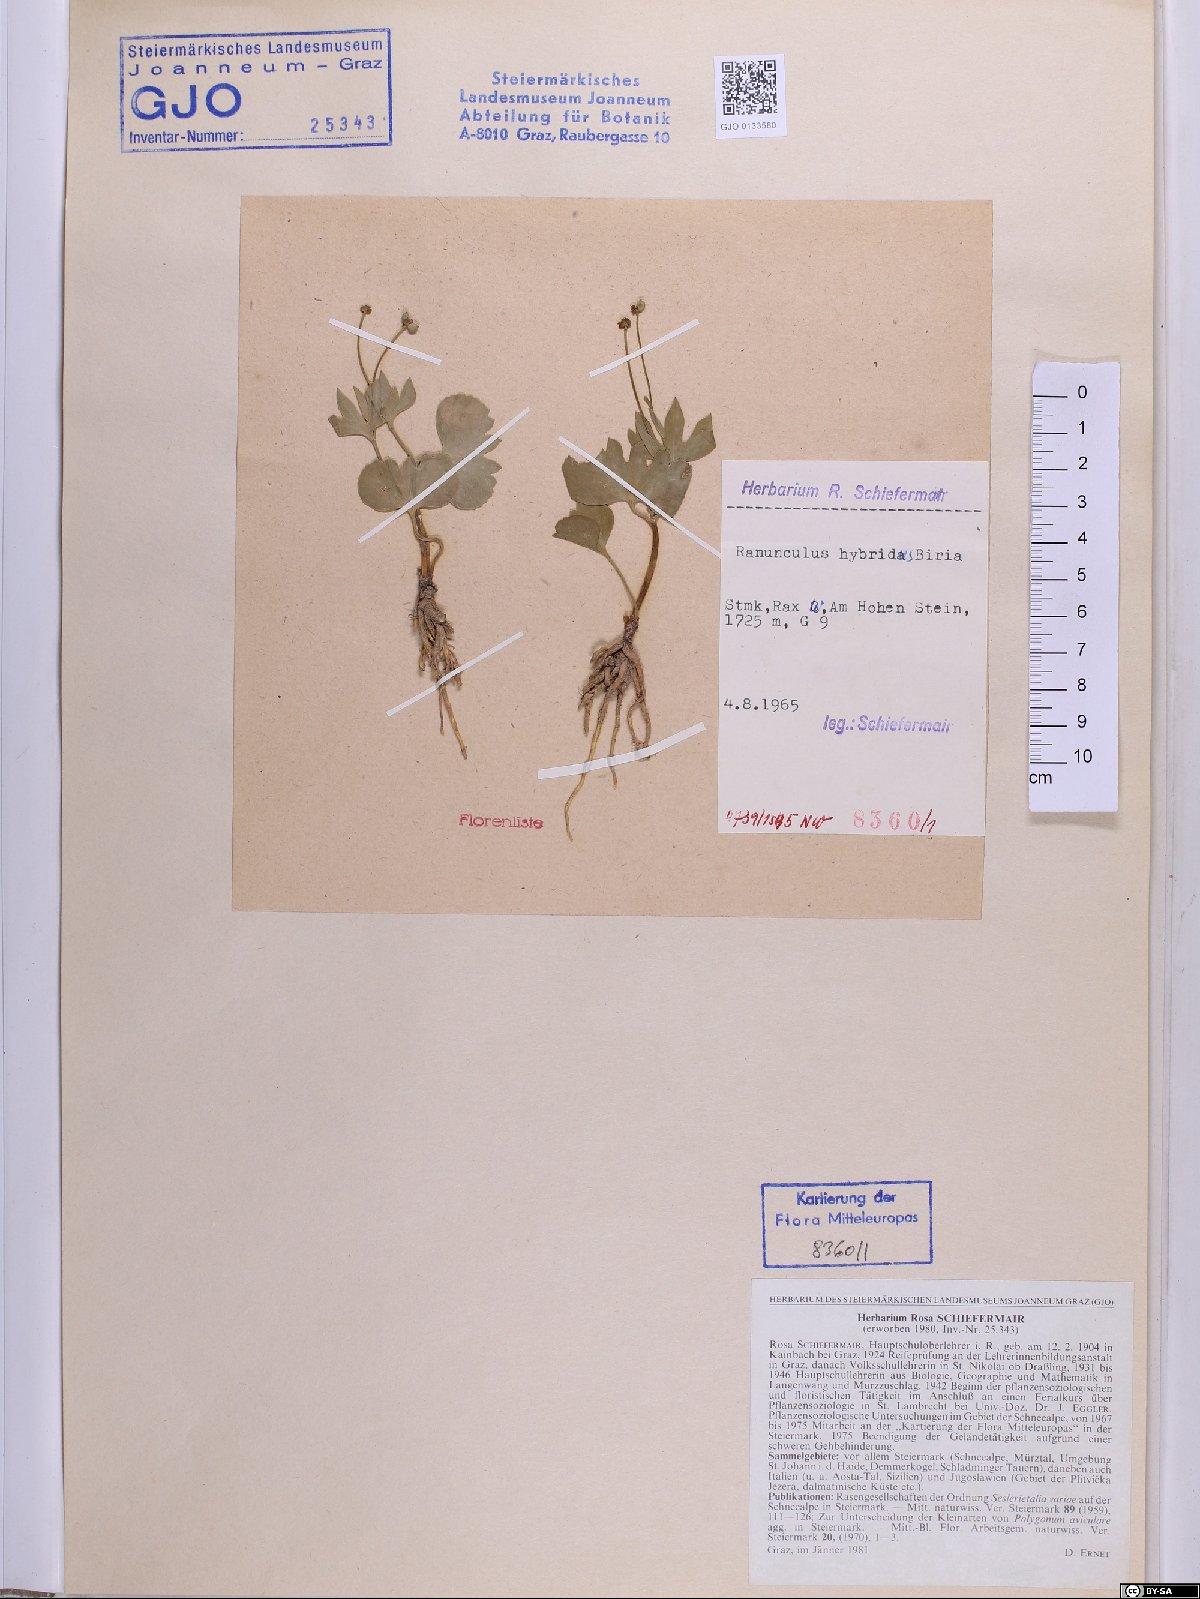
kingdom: Plantae
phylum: Tracheophyta
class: Magnoliopsida
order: Ranunculales
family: Ranunculaceae
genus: Ranunculus
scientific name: Ranunculus hybridus
